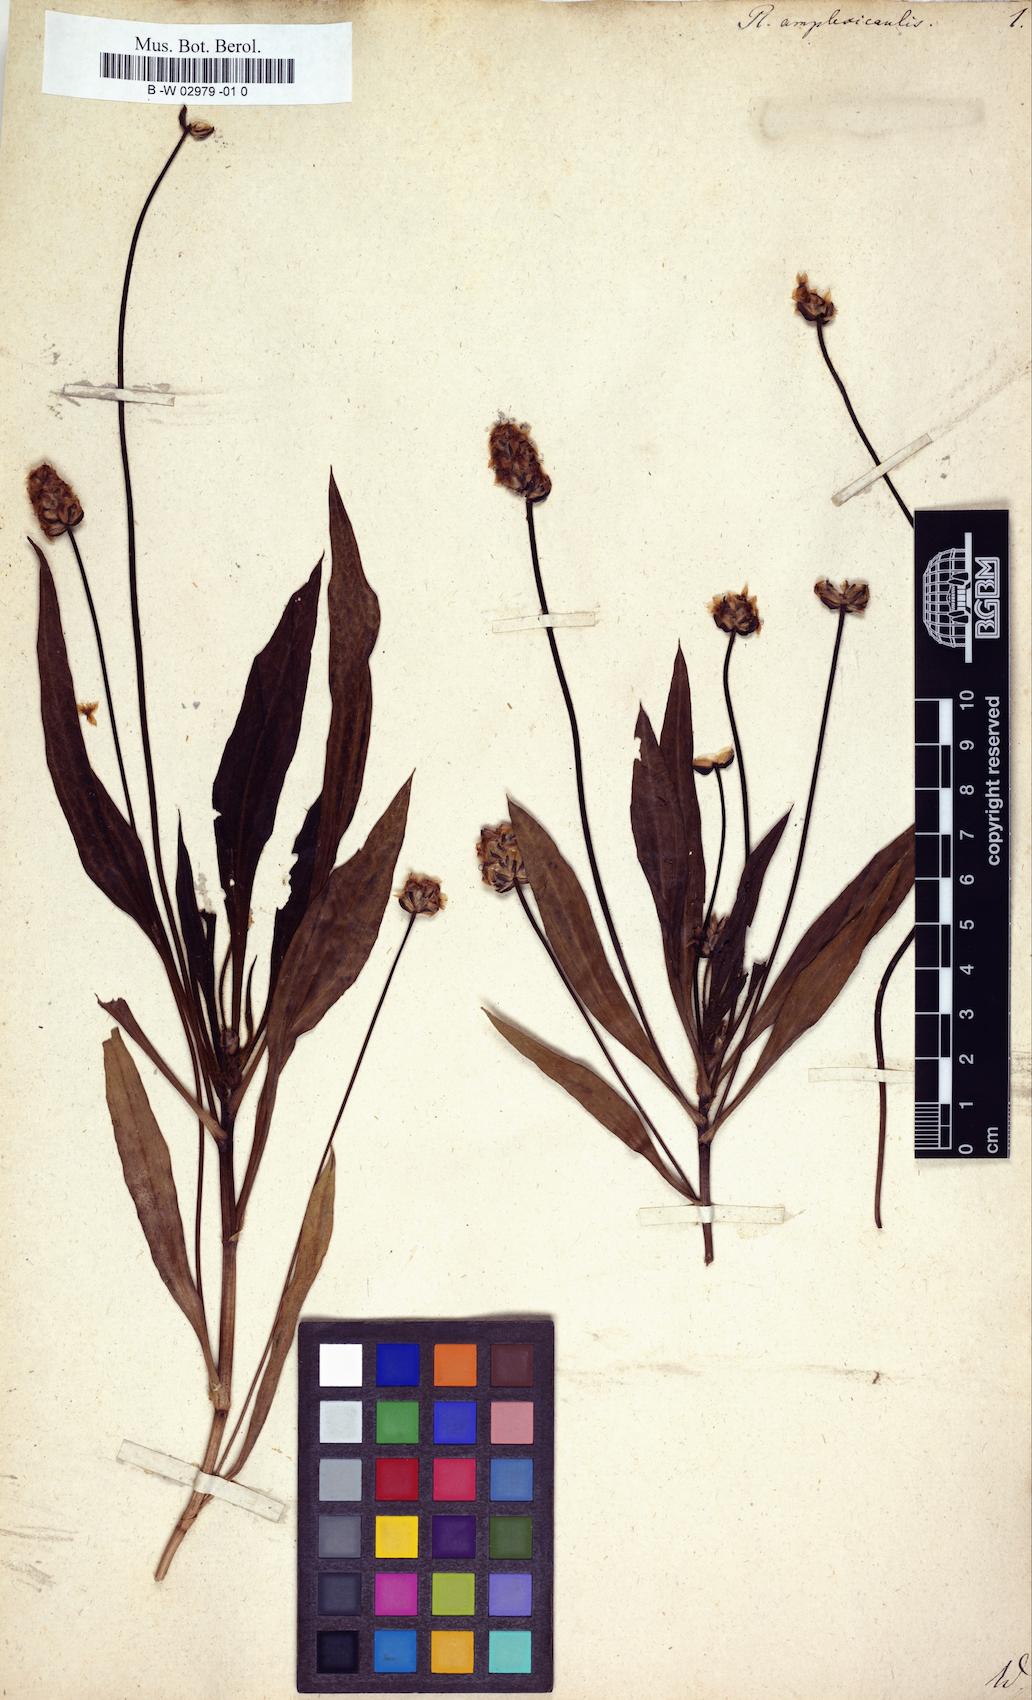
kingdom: Plantae
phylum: Tracheophyta
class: Magnoliopsida
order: Lamiales
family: Plantaginaceae
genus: Plantago
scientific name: Plantago amplexicaulis
